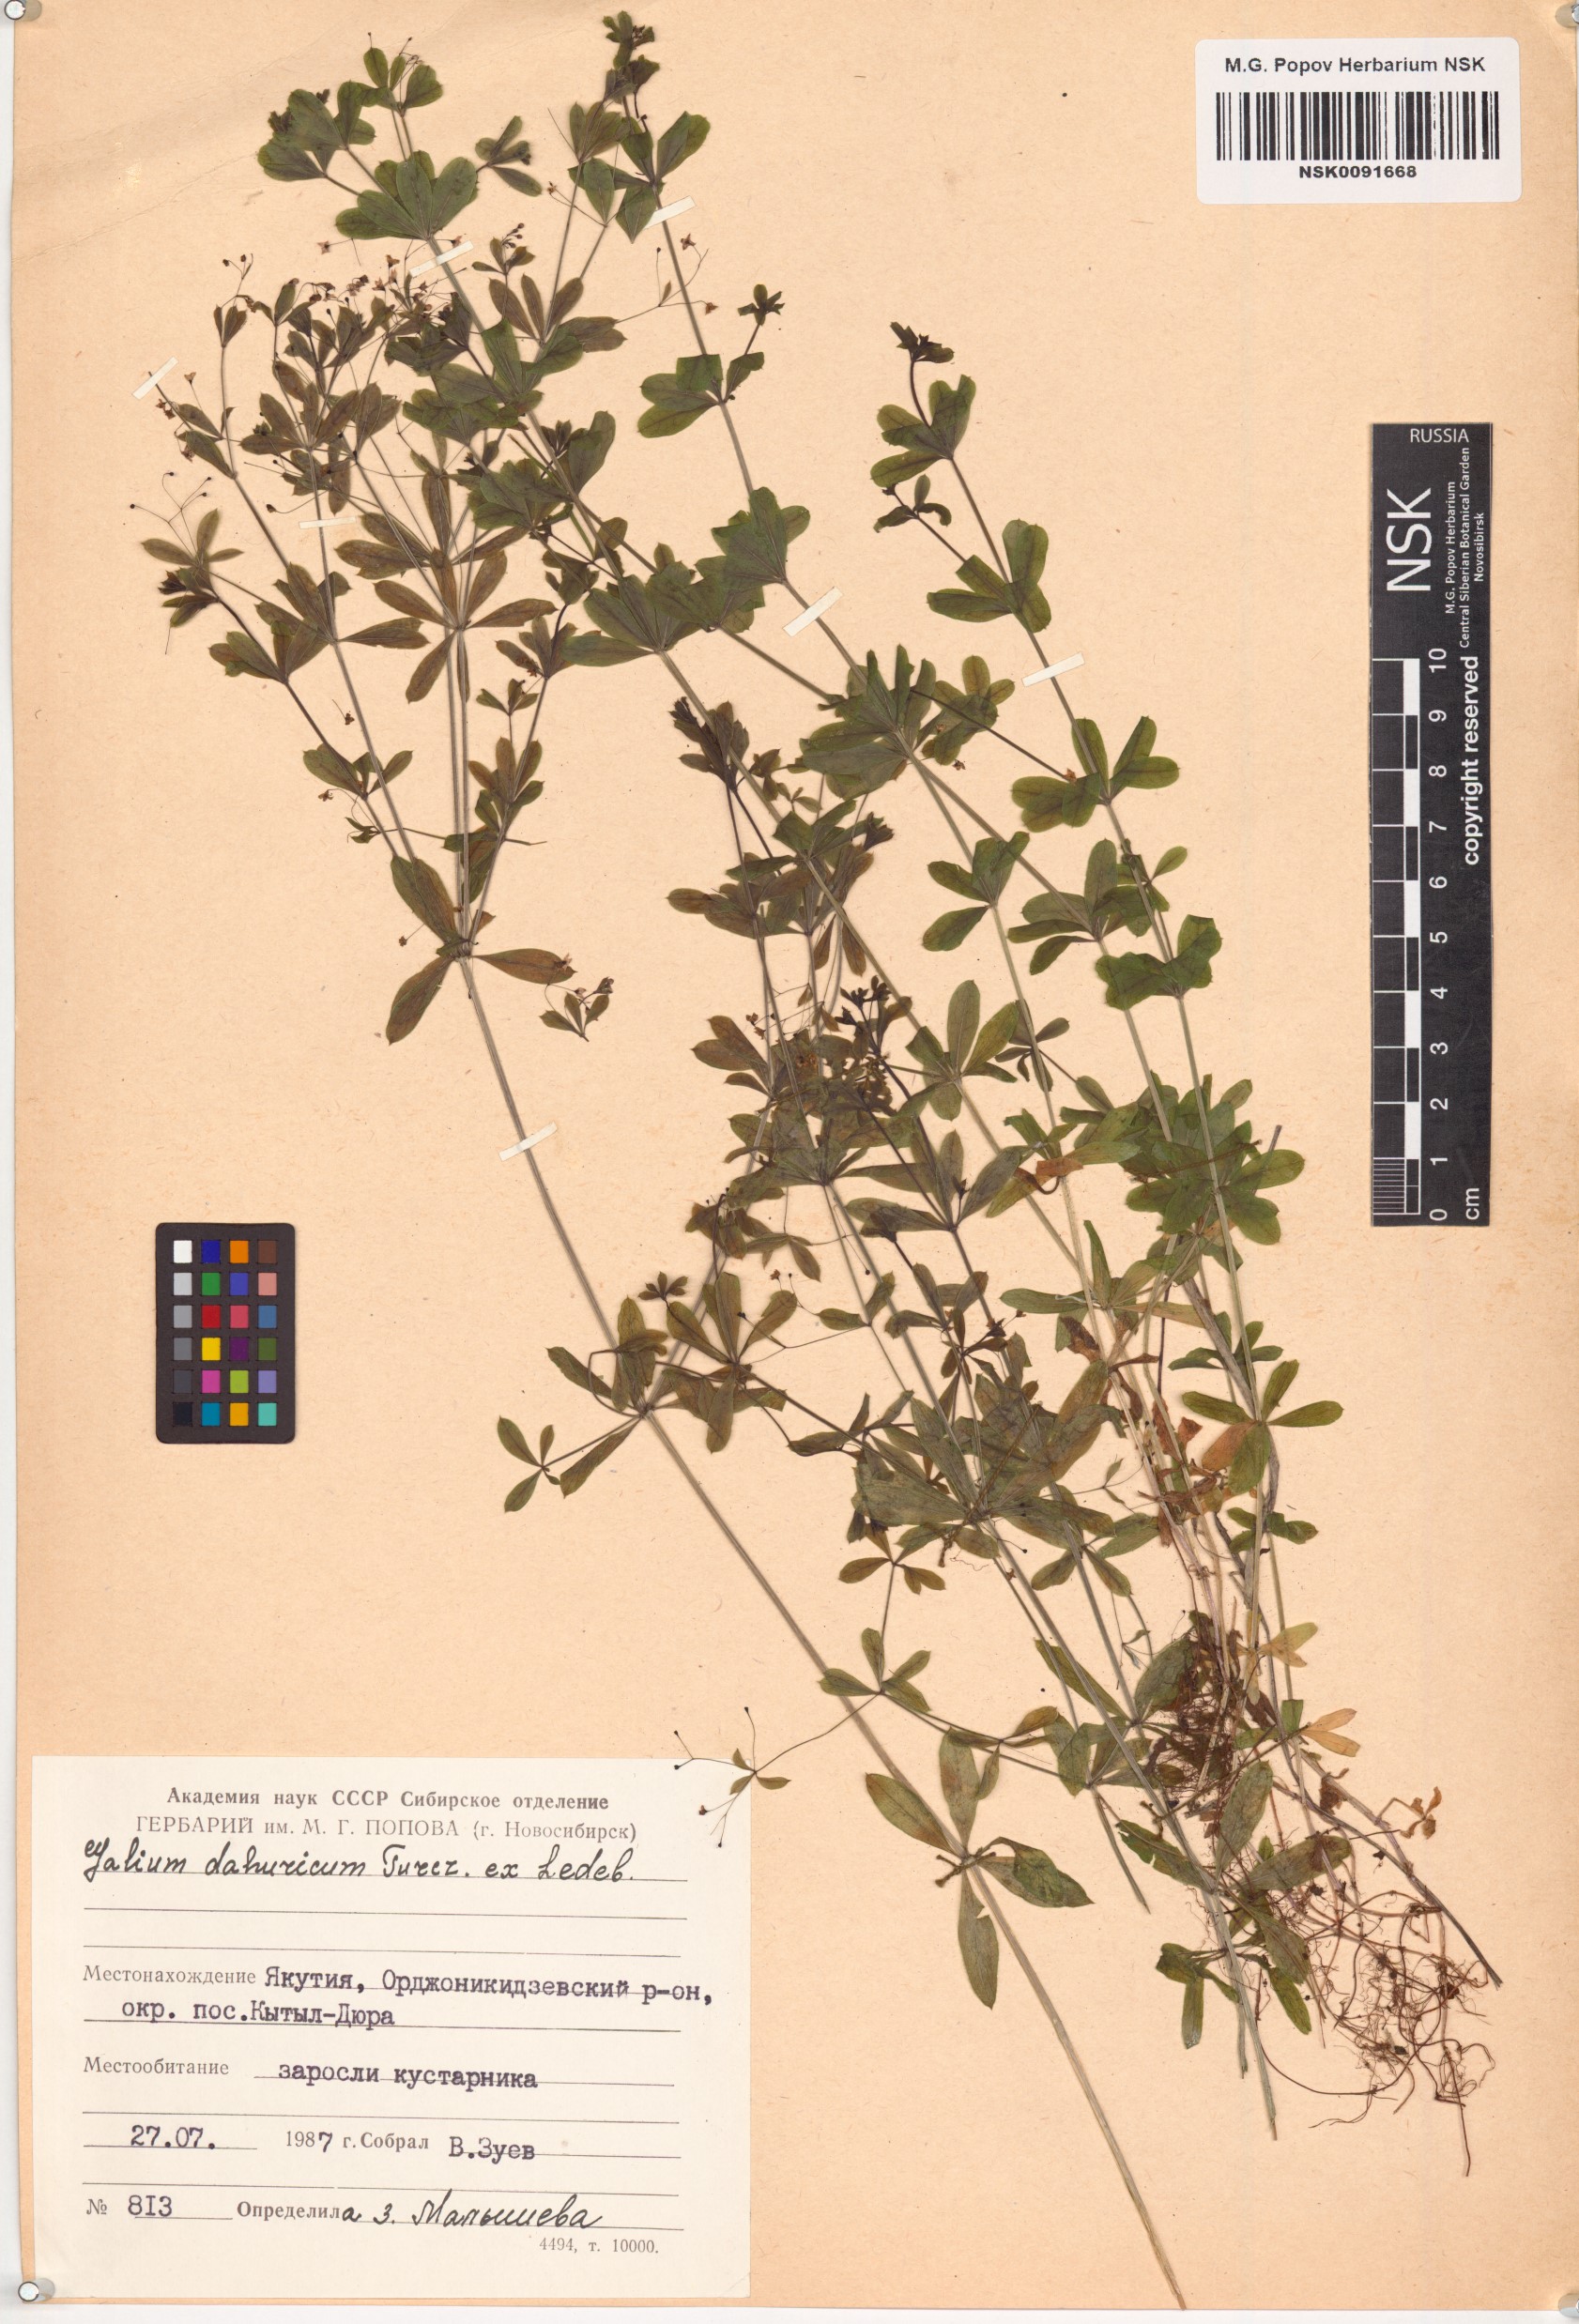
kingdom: Plantae
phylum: Tracheophyta
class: Magnoliopsida
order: Gentianales
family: Rubiaceae
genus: Galium
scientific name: Galium dahuricum
